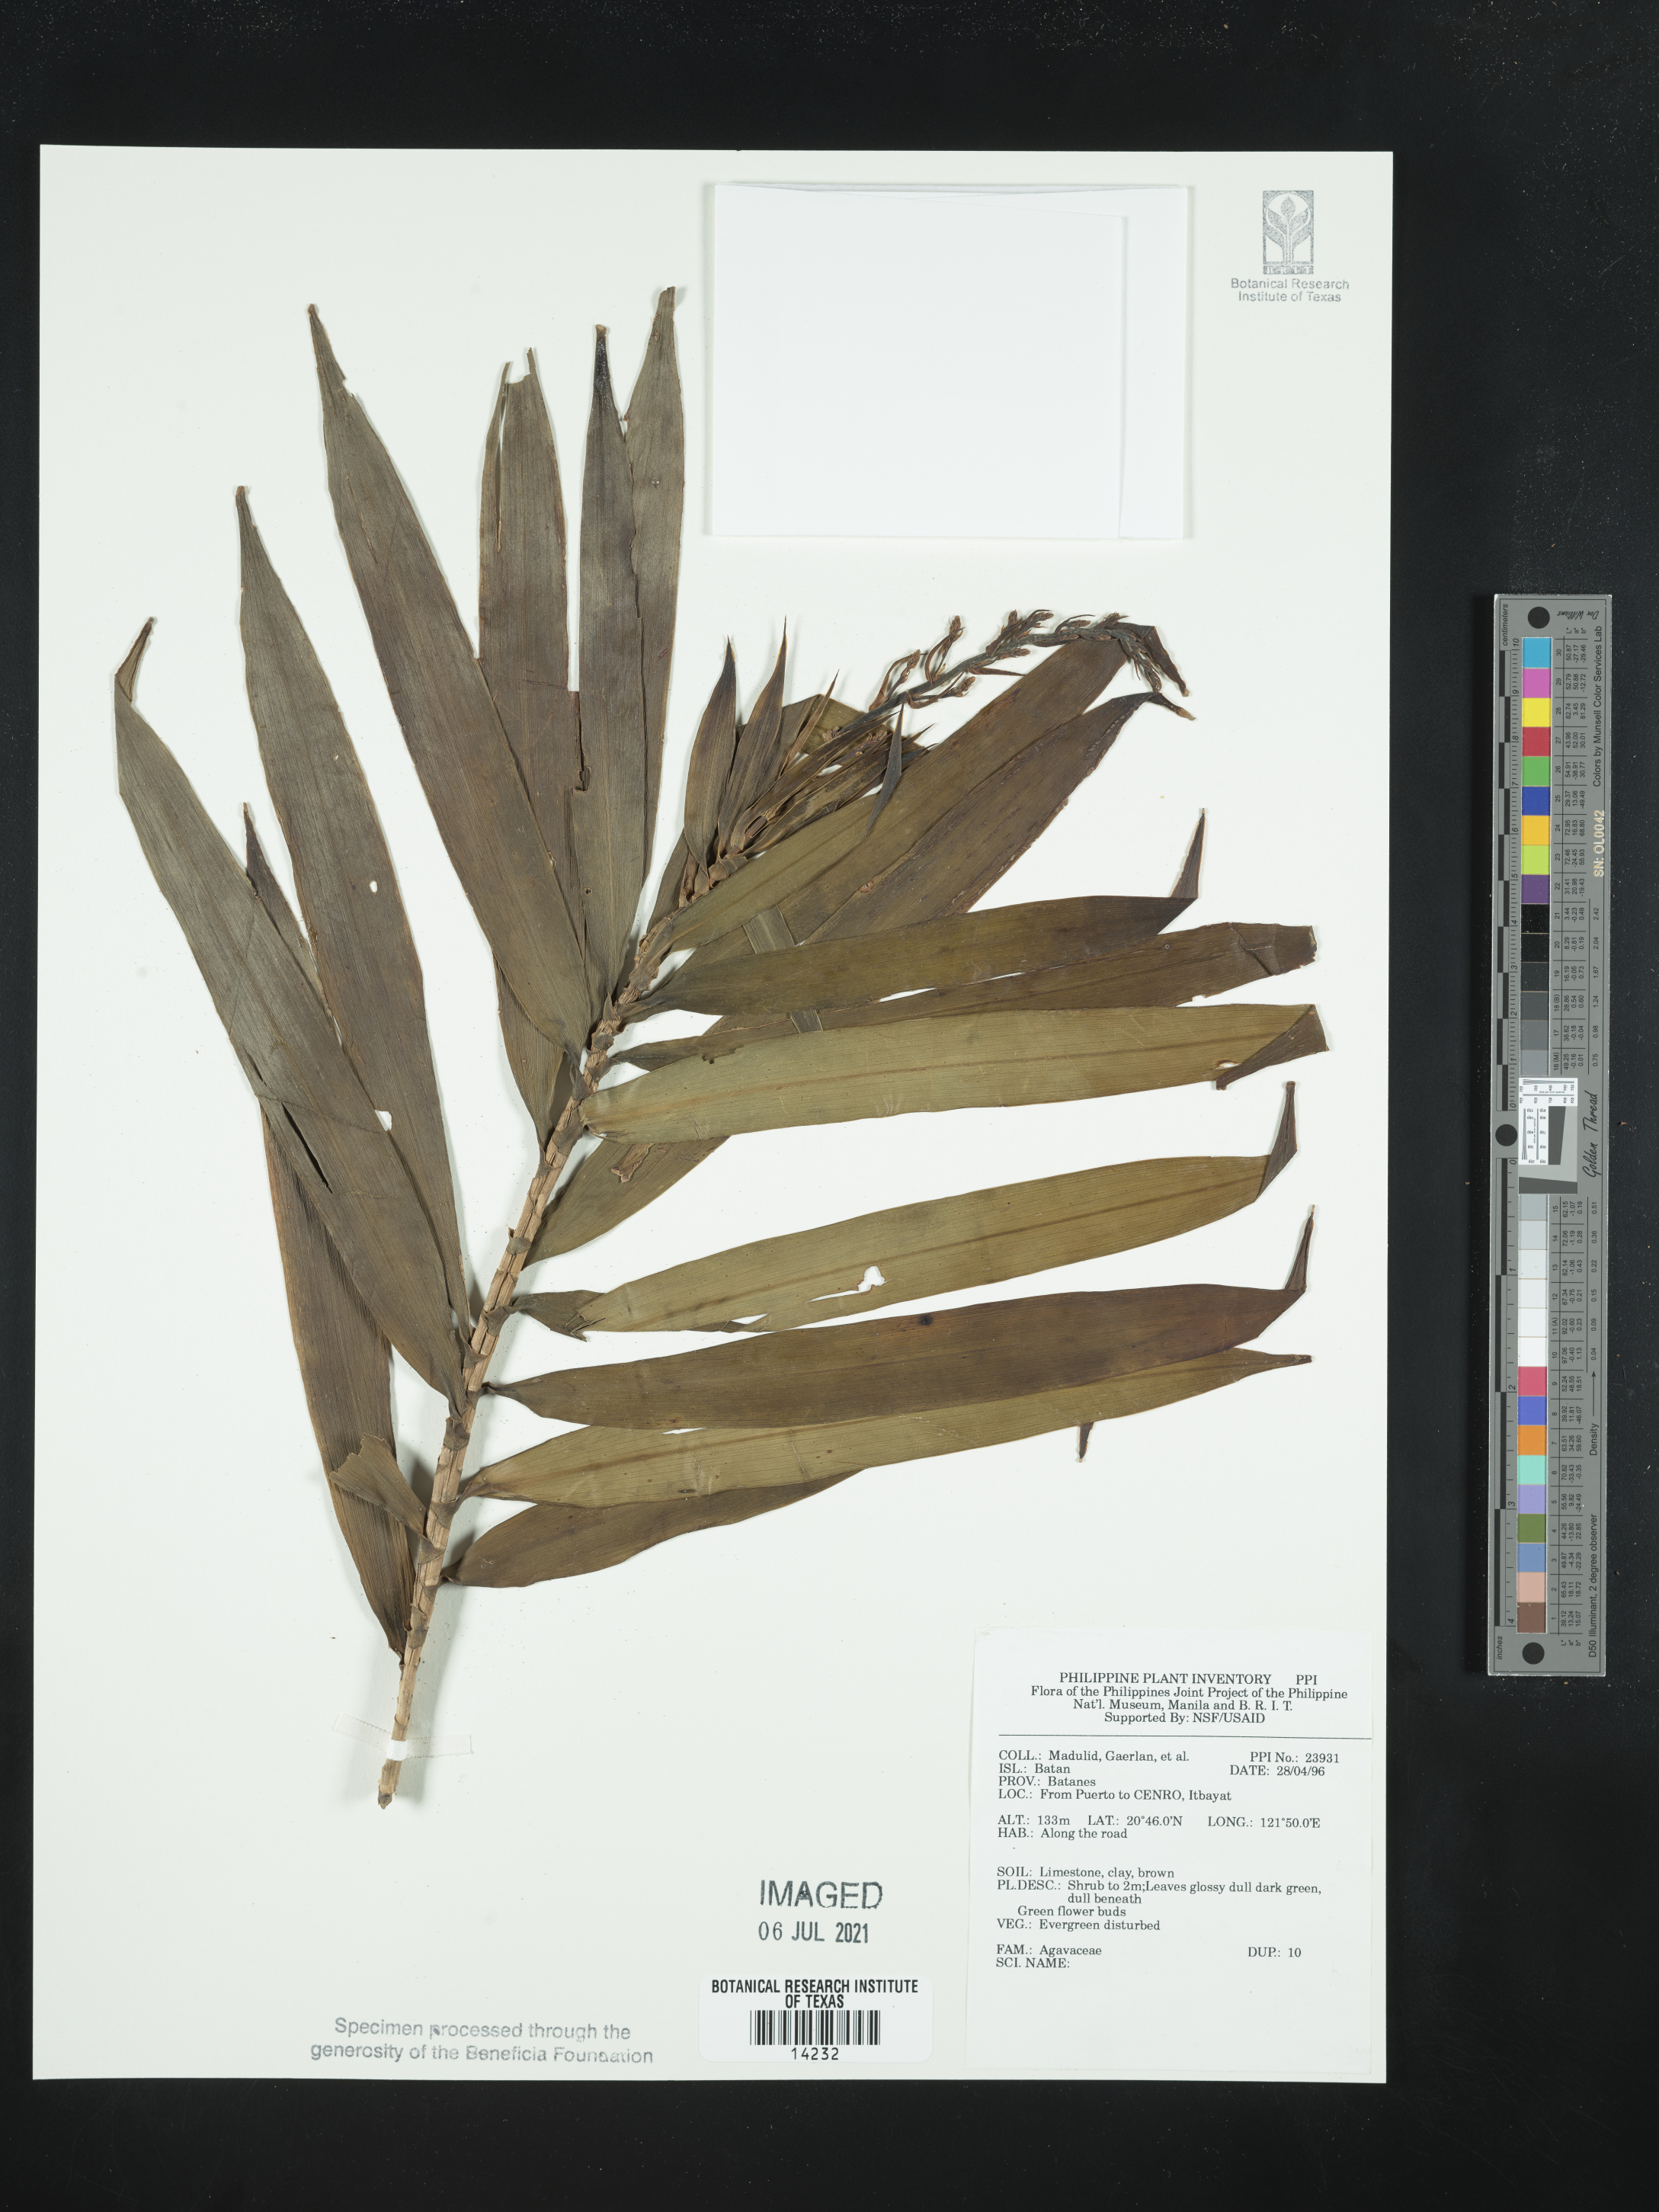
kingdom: Plantae
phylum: Tracheophyta
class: Liliopsida
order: Asparagales
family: Asparagaceae
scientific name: Asparagaceae
